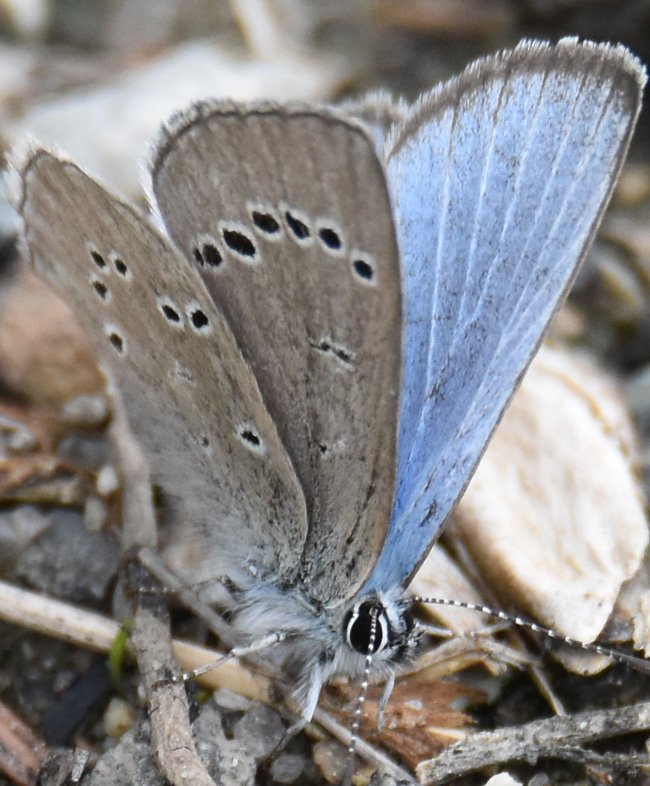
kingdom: Animalia
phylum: Arthropoda
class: Insecta
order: Lepidoptera
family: Lycaenidae
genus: Glaucopsyche
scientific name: Glaucopsyche lygdamus
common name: Silvery Blue
